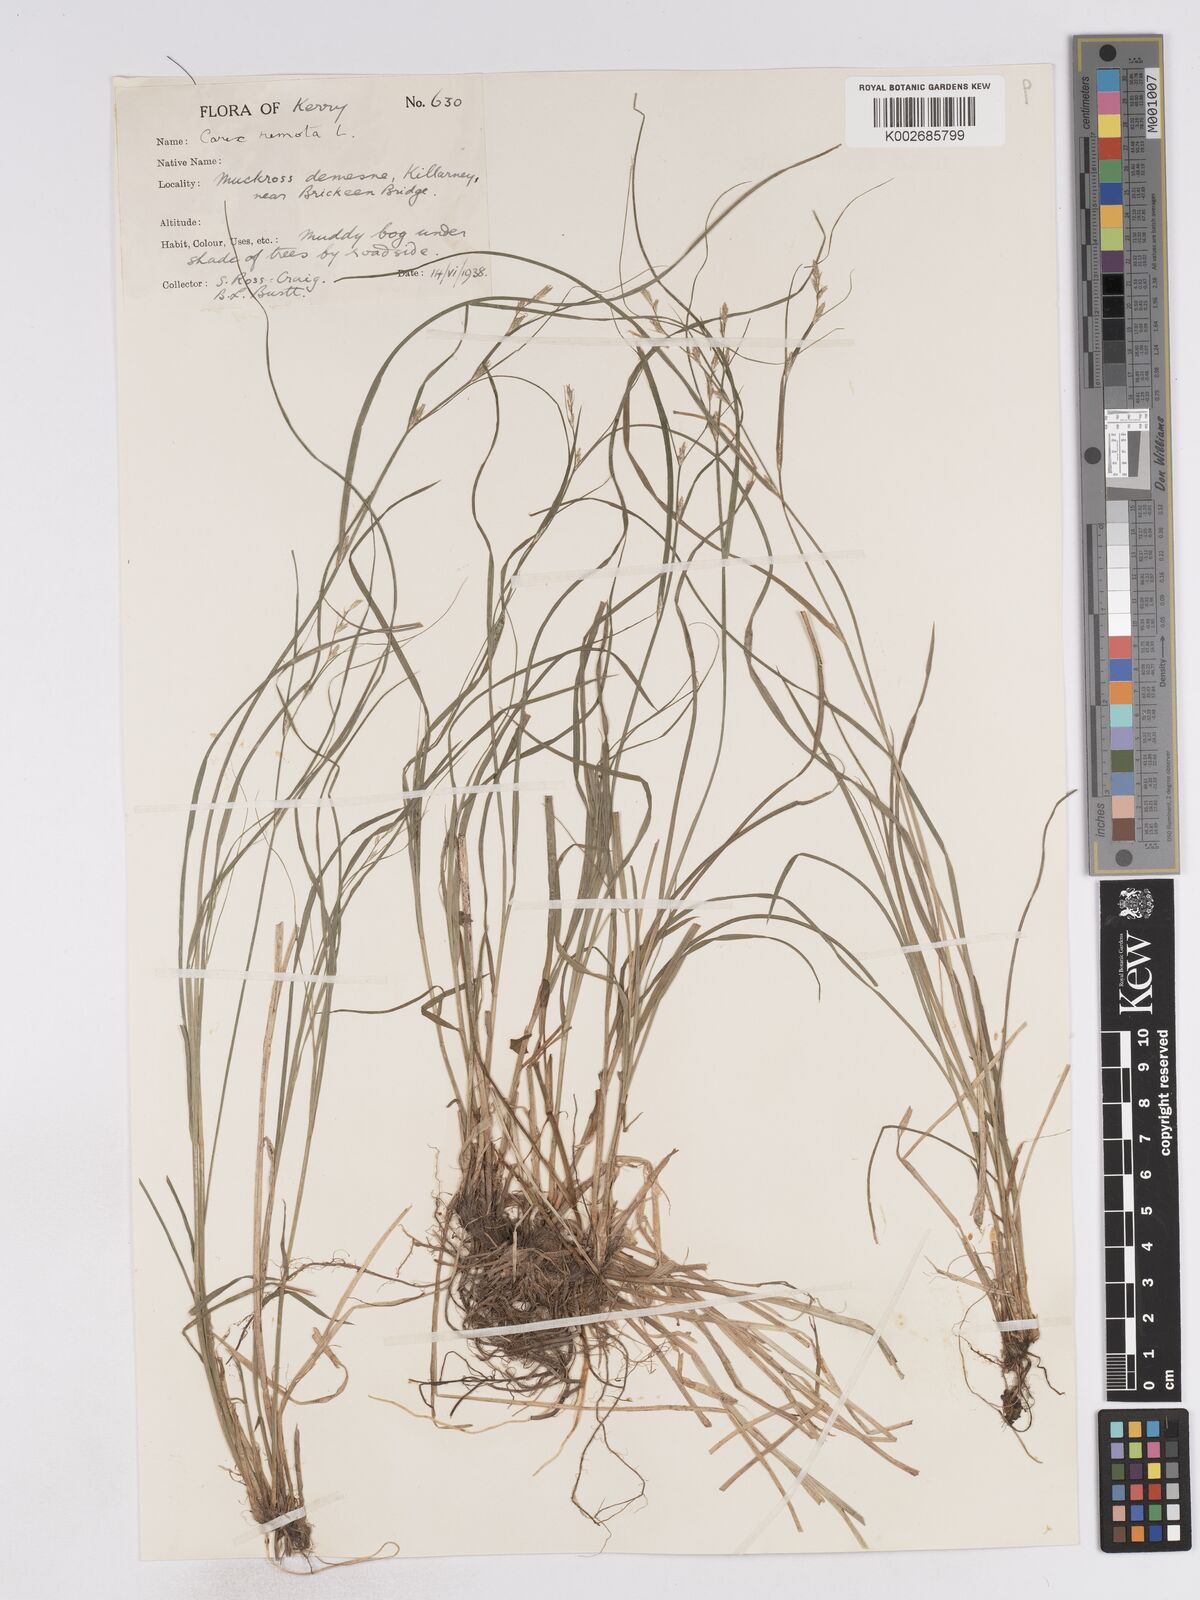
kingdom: Plantae
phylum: Tracheophyta
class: Liliopsida
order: Poales
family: Cyperaceae
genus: Carex
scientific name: Carex remota
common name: Remote sedge
